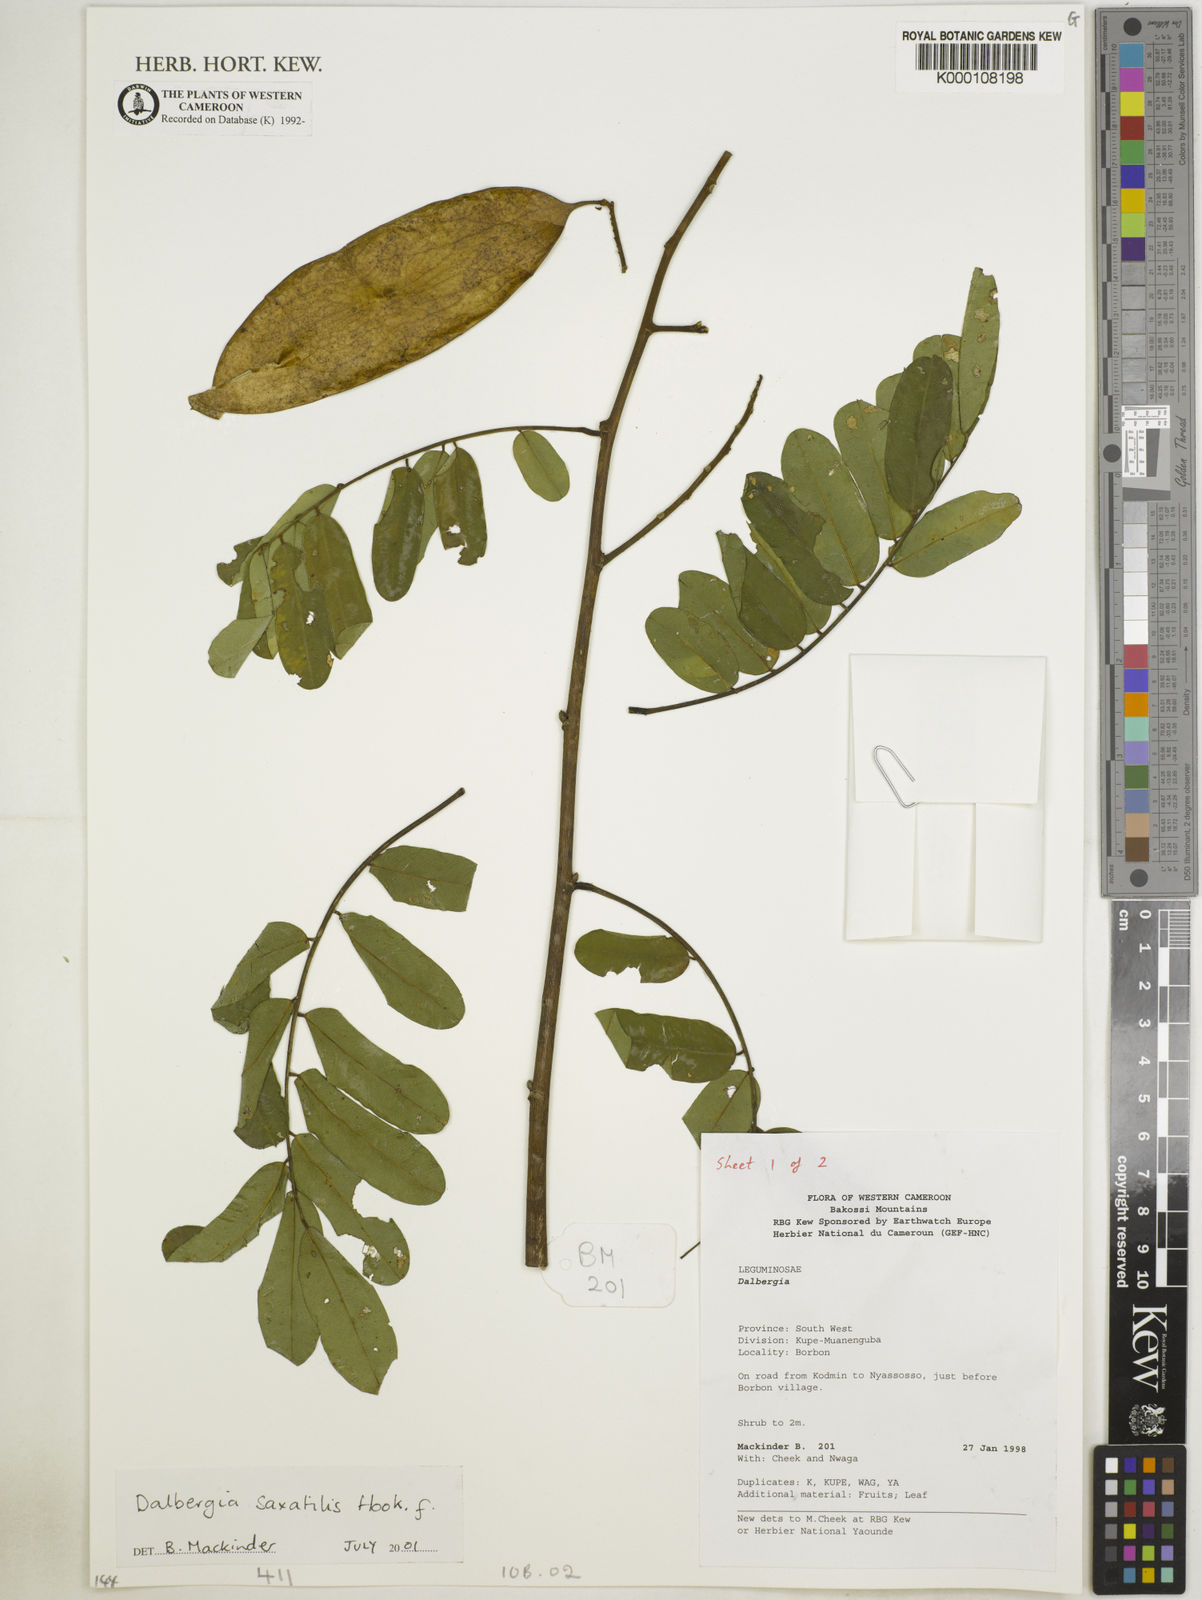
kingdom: Plantae
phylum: Tracheophyta
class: Magnoliopsida
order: Fabales
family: Fabaceae
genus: Dalbergia
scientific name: Dalbergia saxatilis
